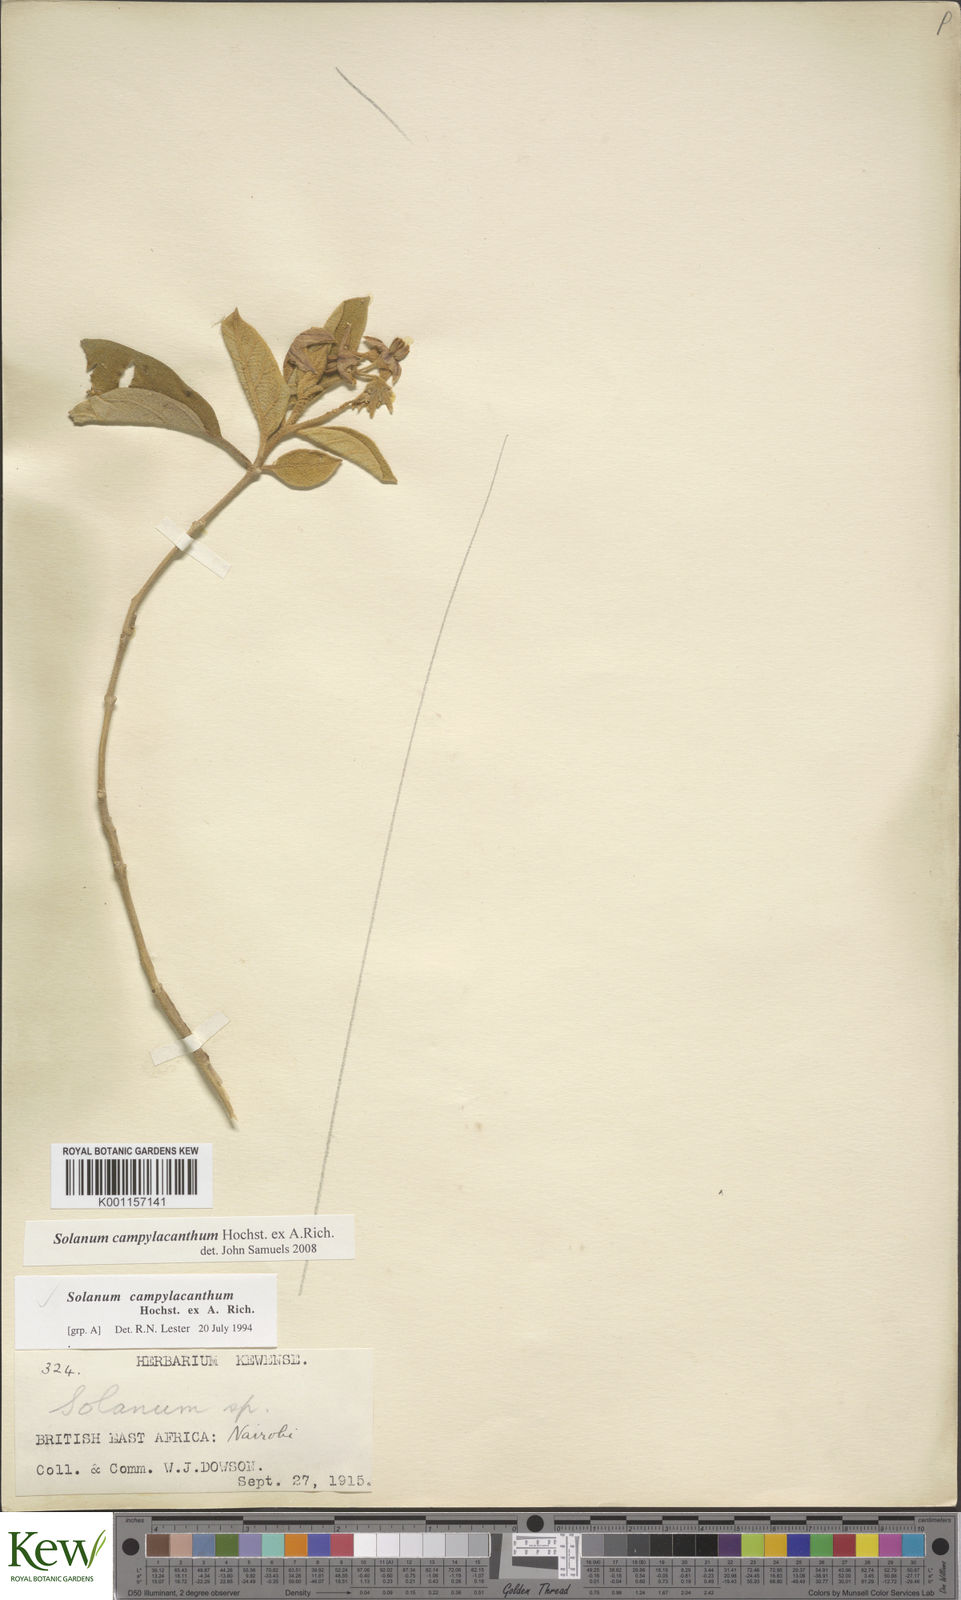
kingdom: Plantae
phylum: Tracheophyta
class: Magnoliopsida
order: Solanales
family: Solanaceae
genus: Solanum
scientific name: Solanum campylacanthum
